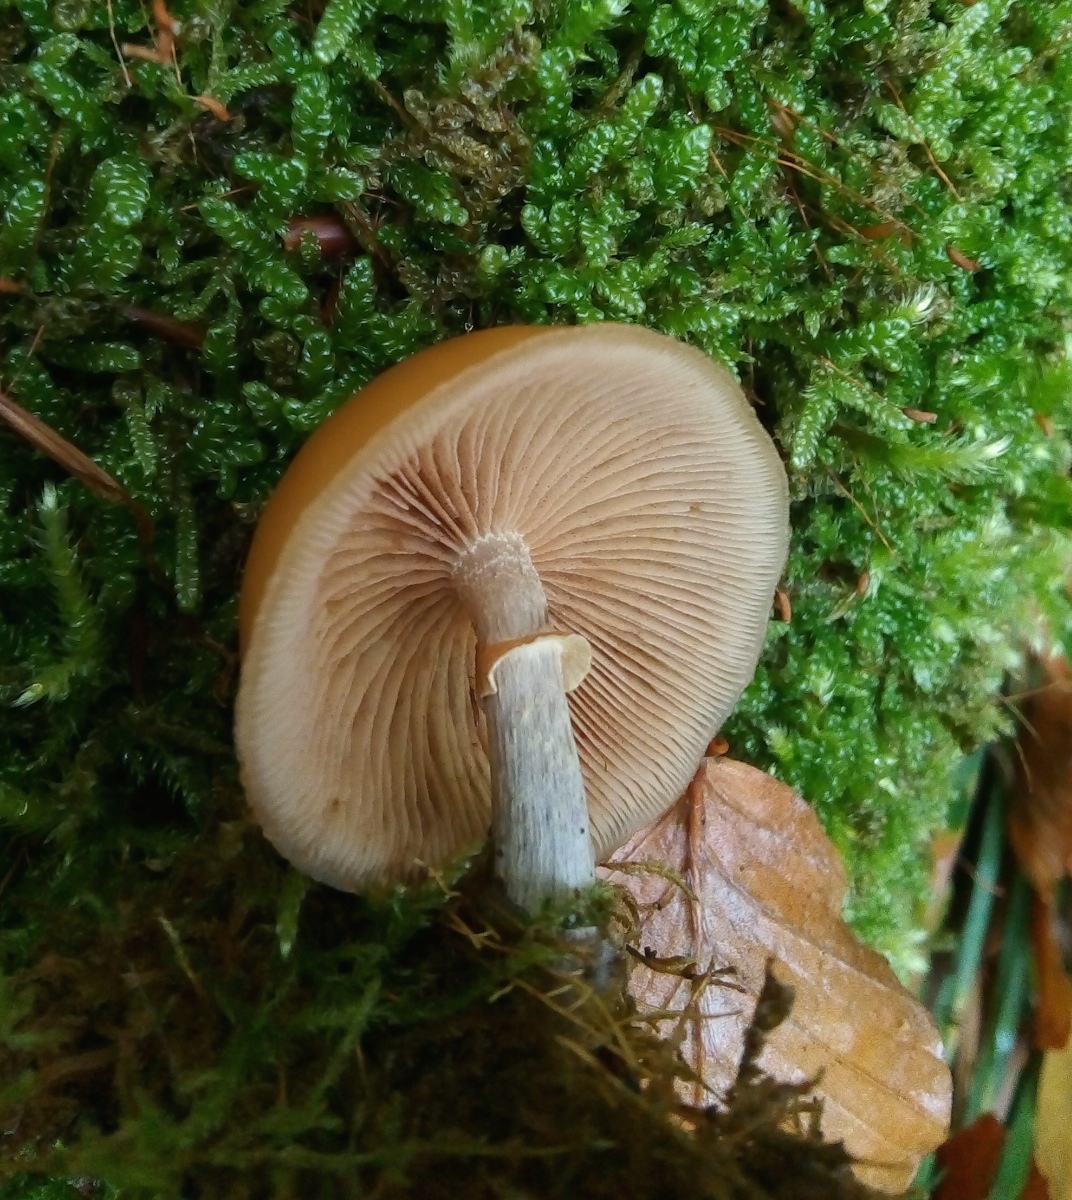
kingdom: Fungi
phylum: Basidiomycota
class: Agaricomycetes
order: Agaricales
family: Hymenogastraceae
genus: Galerina
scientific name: Galerina marginata
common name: randbæltet hjelmhat
